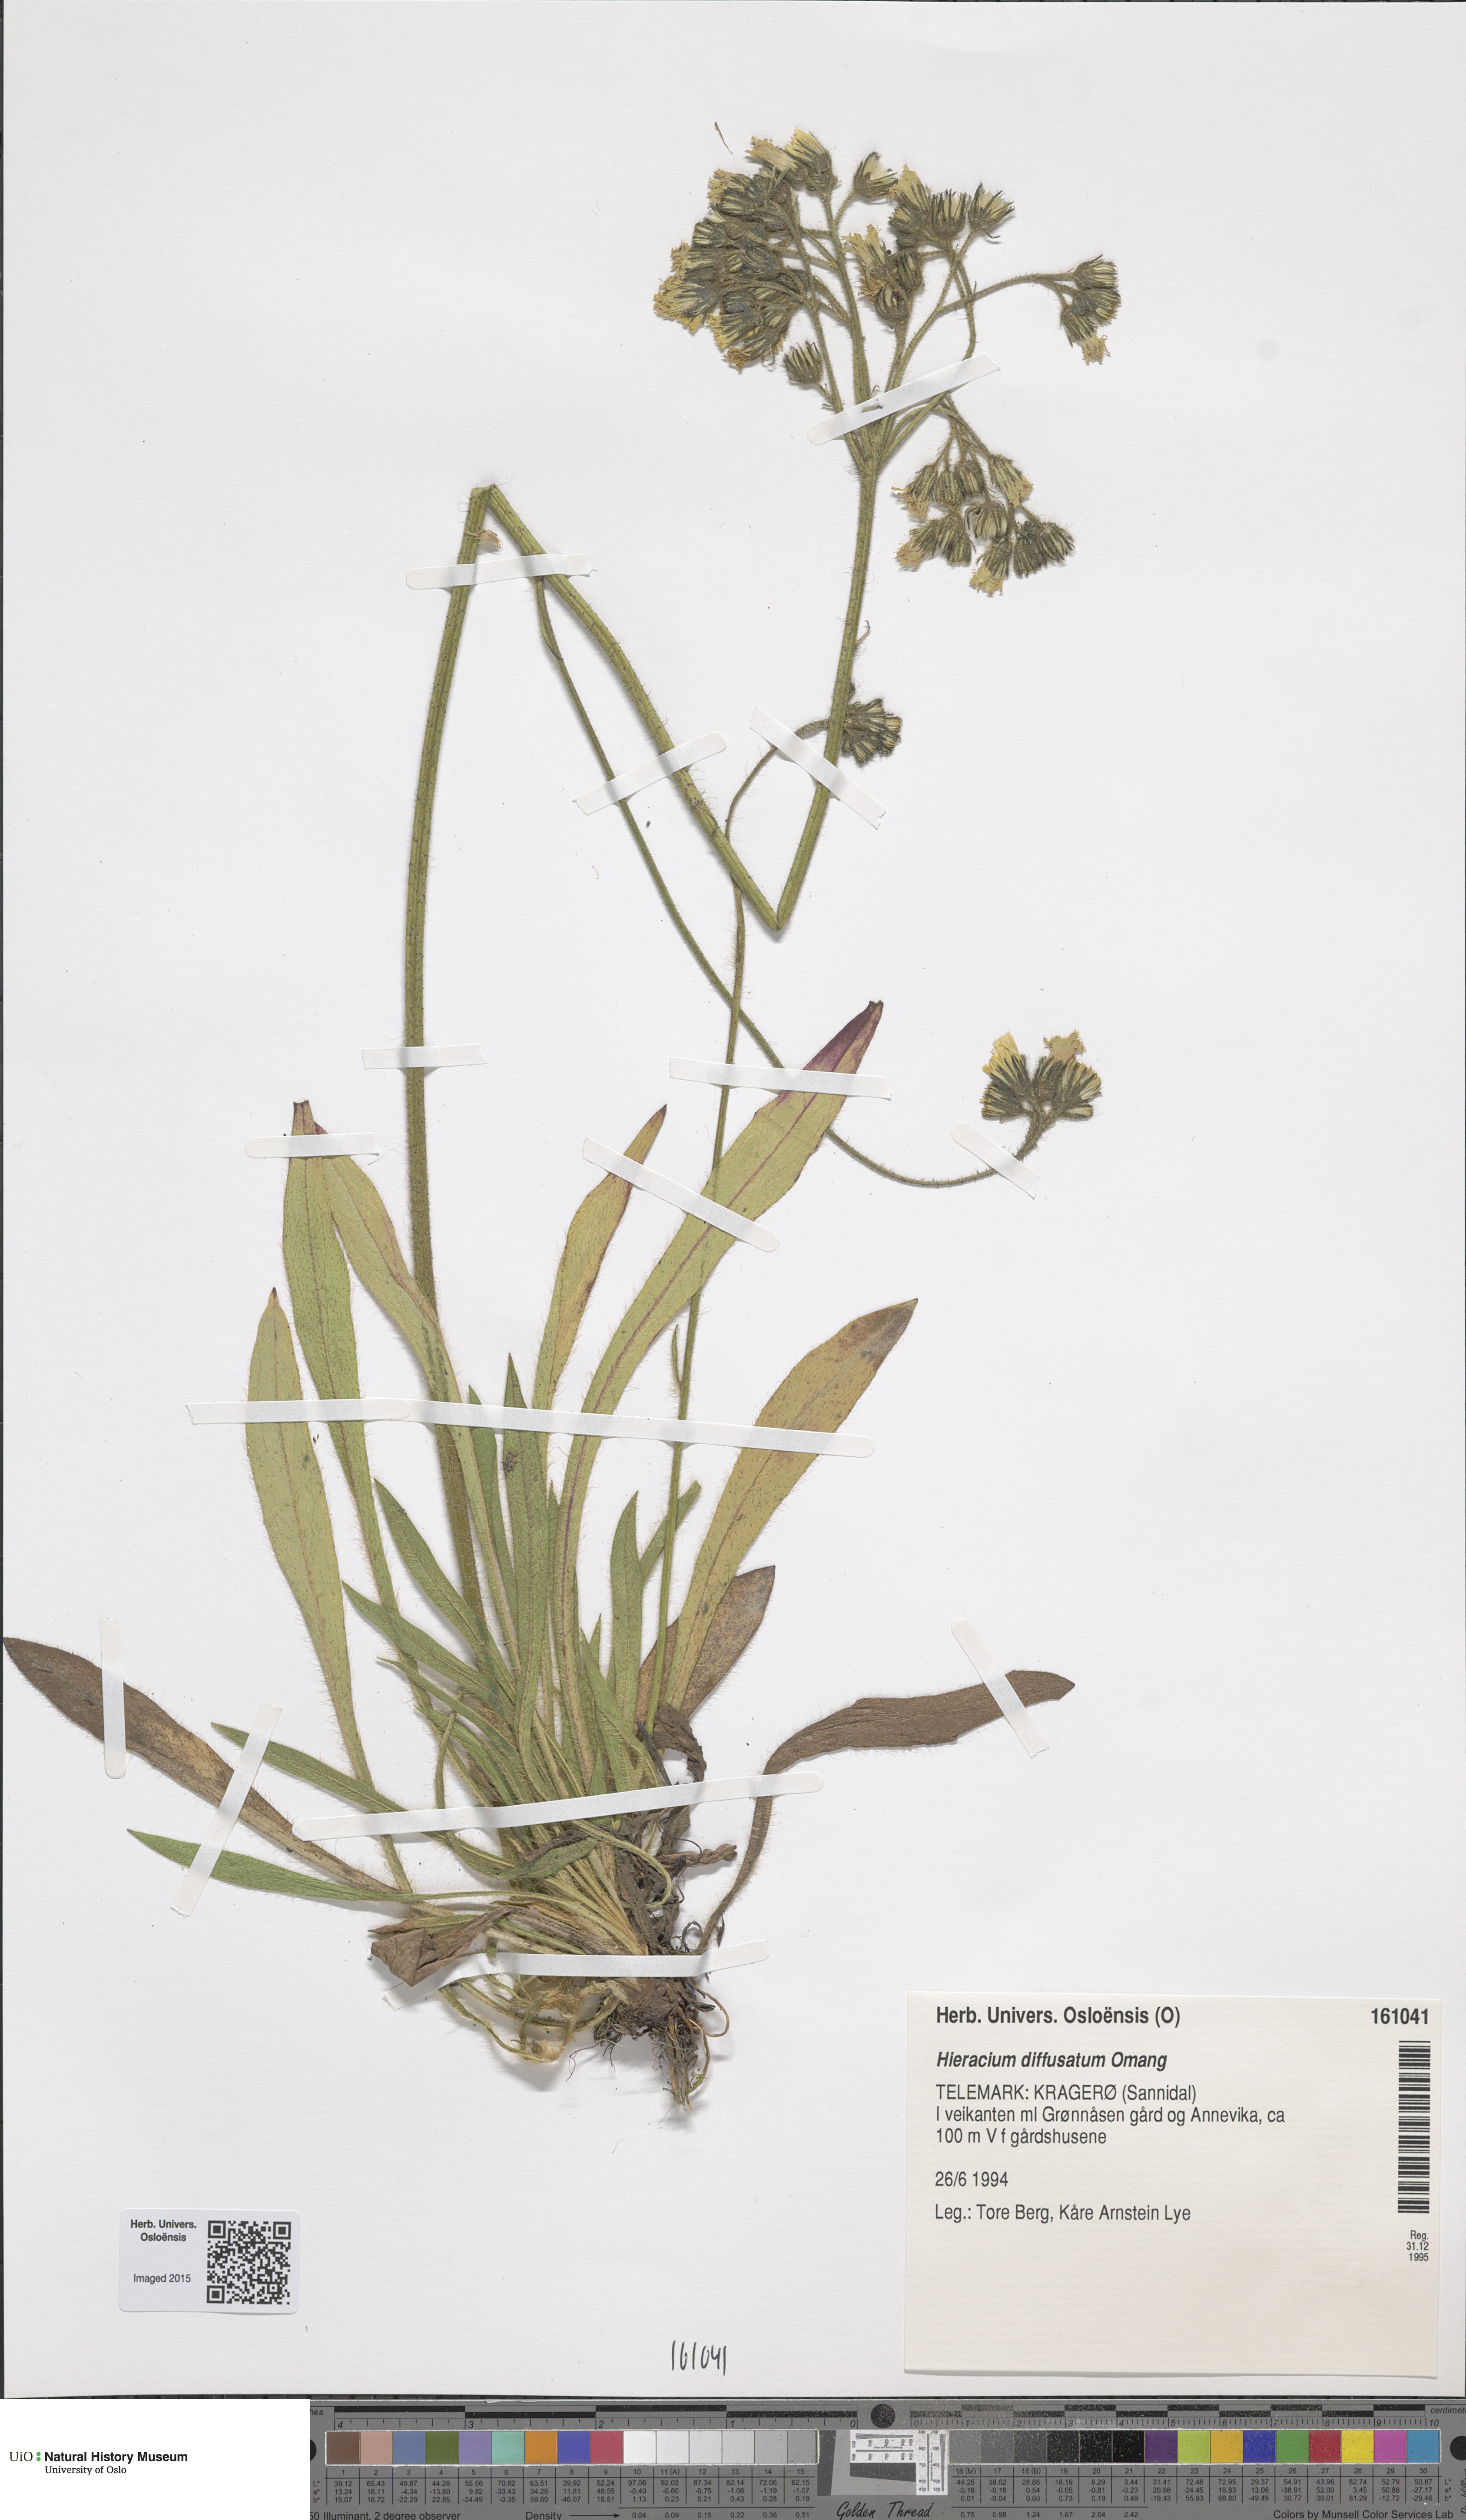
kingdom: Plantae
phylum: Tracheophyta
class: Magnoliopsida
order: Asterales
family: Asteraceae
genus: Pilosella
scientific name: Pilosella dubia
